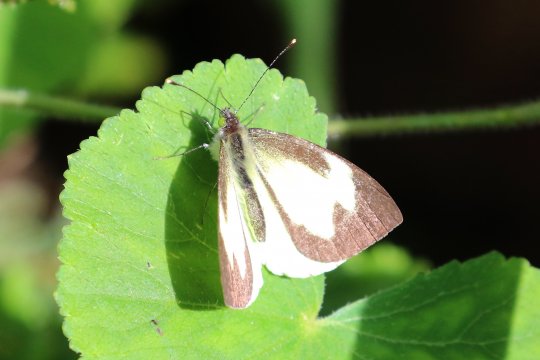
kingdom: Animalia
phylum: Arthropoda
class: Insecta
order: Lepidoptera
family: Pieridae
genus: Leptophobia
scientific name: Leptophobia eleone
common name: silky wanderer
